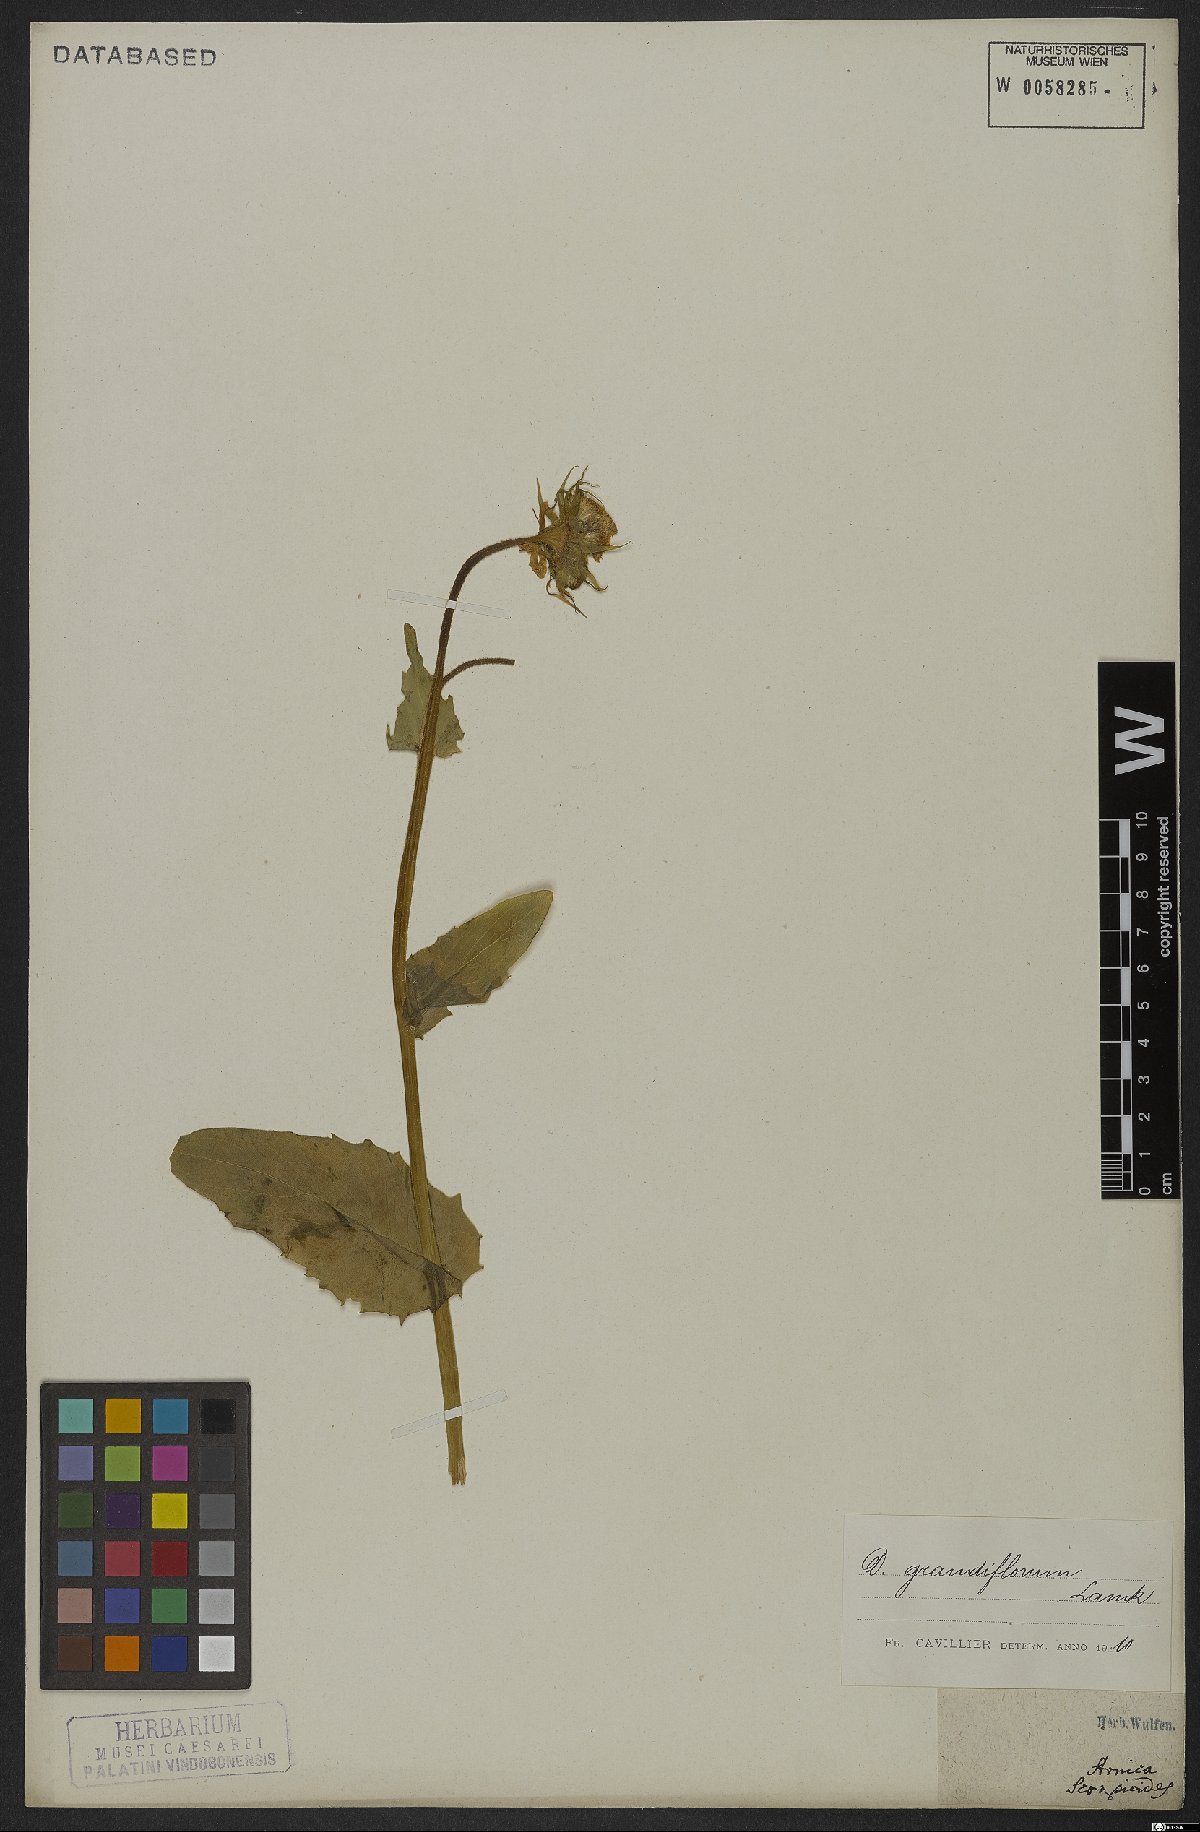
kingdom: Plantae
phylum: Tracheophyta
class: Magnoliopsida
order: Asterales
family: Asteraceae
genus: Doronicum
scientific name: Doronicum grandiflorum
